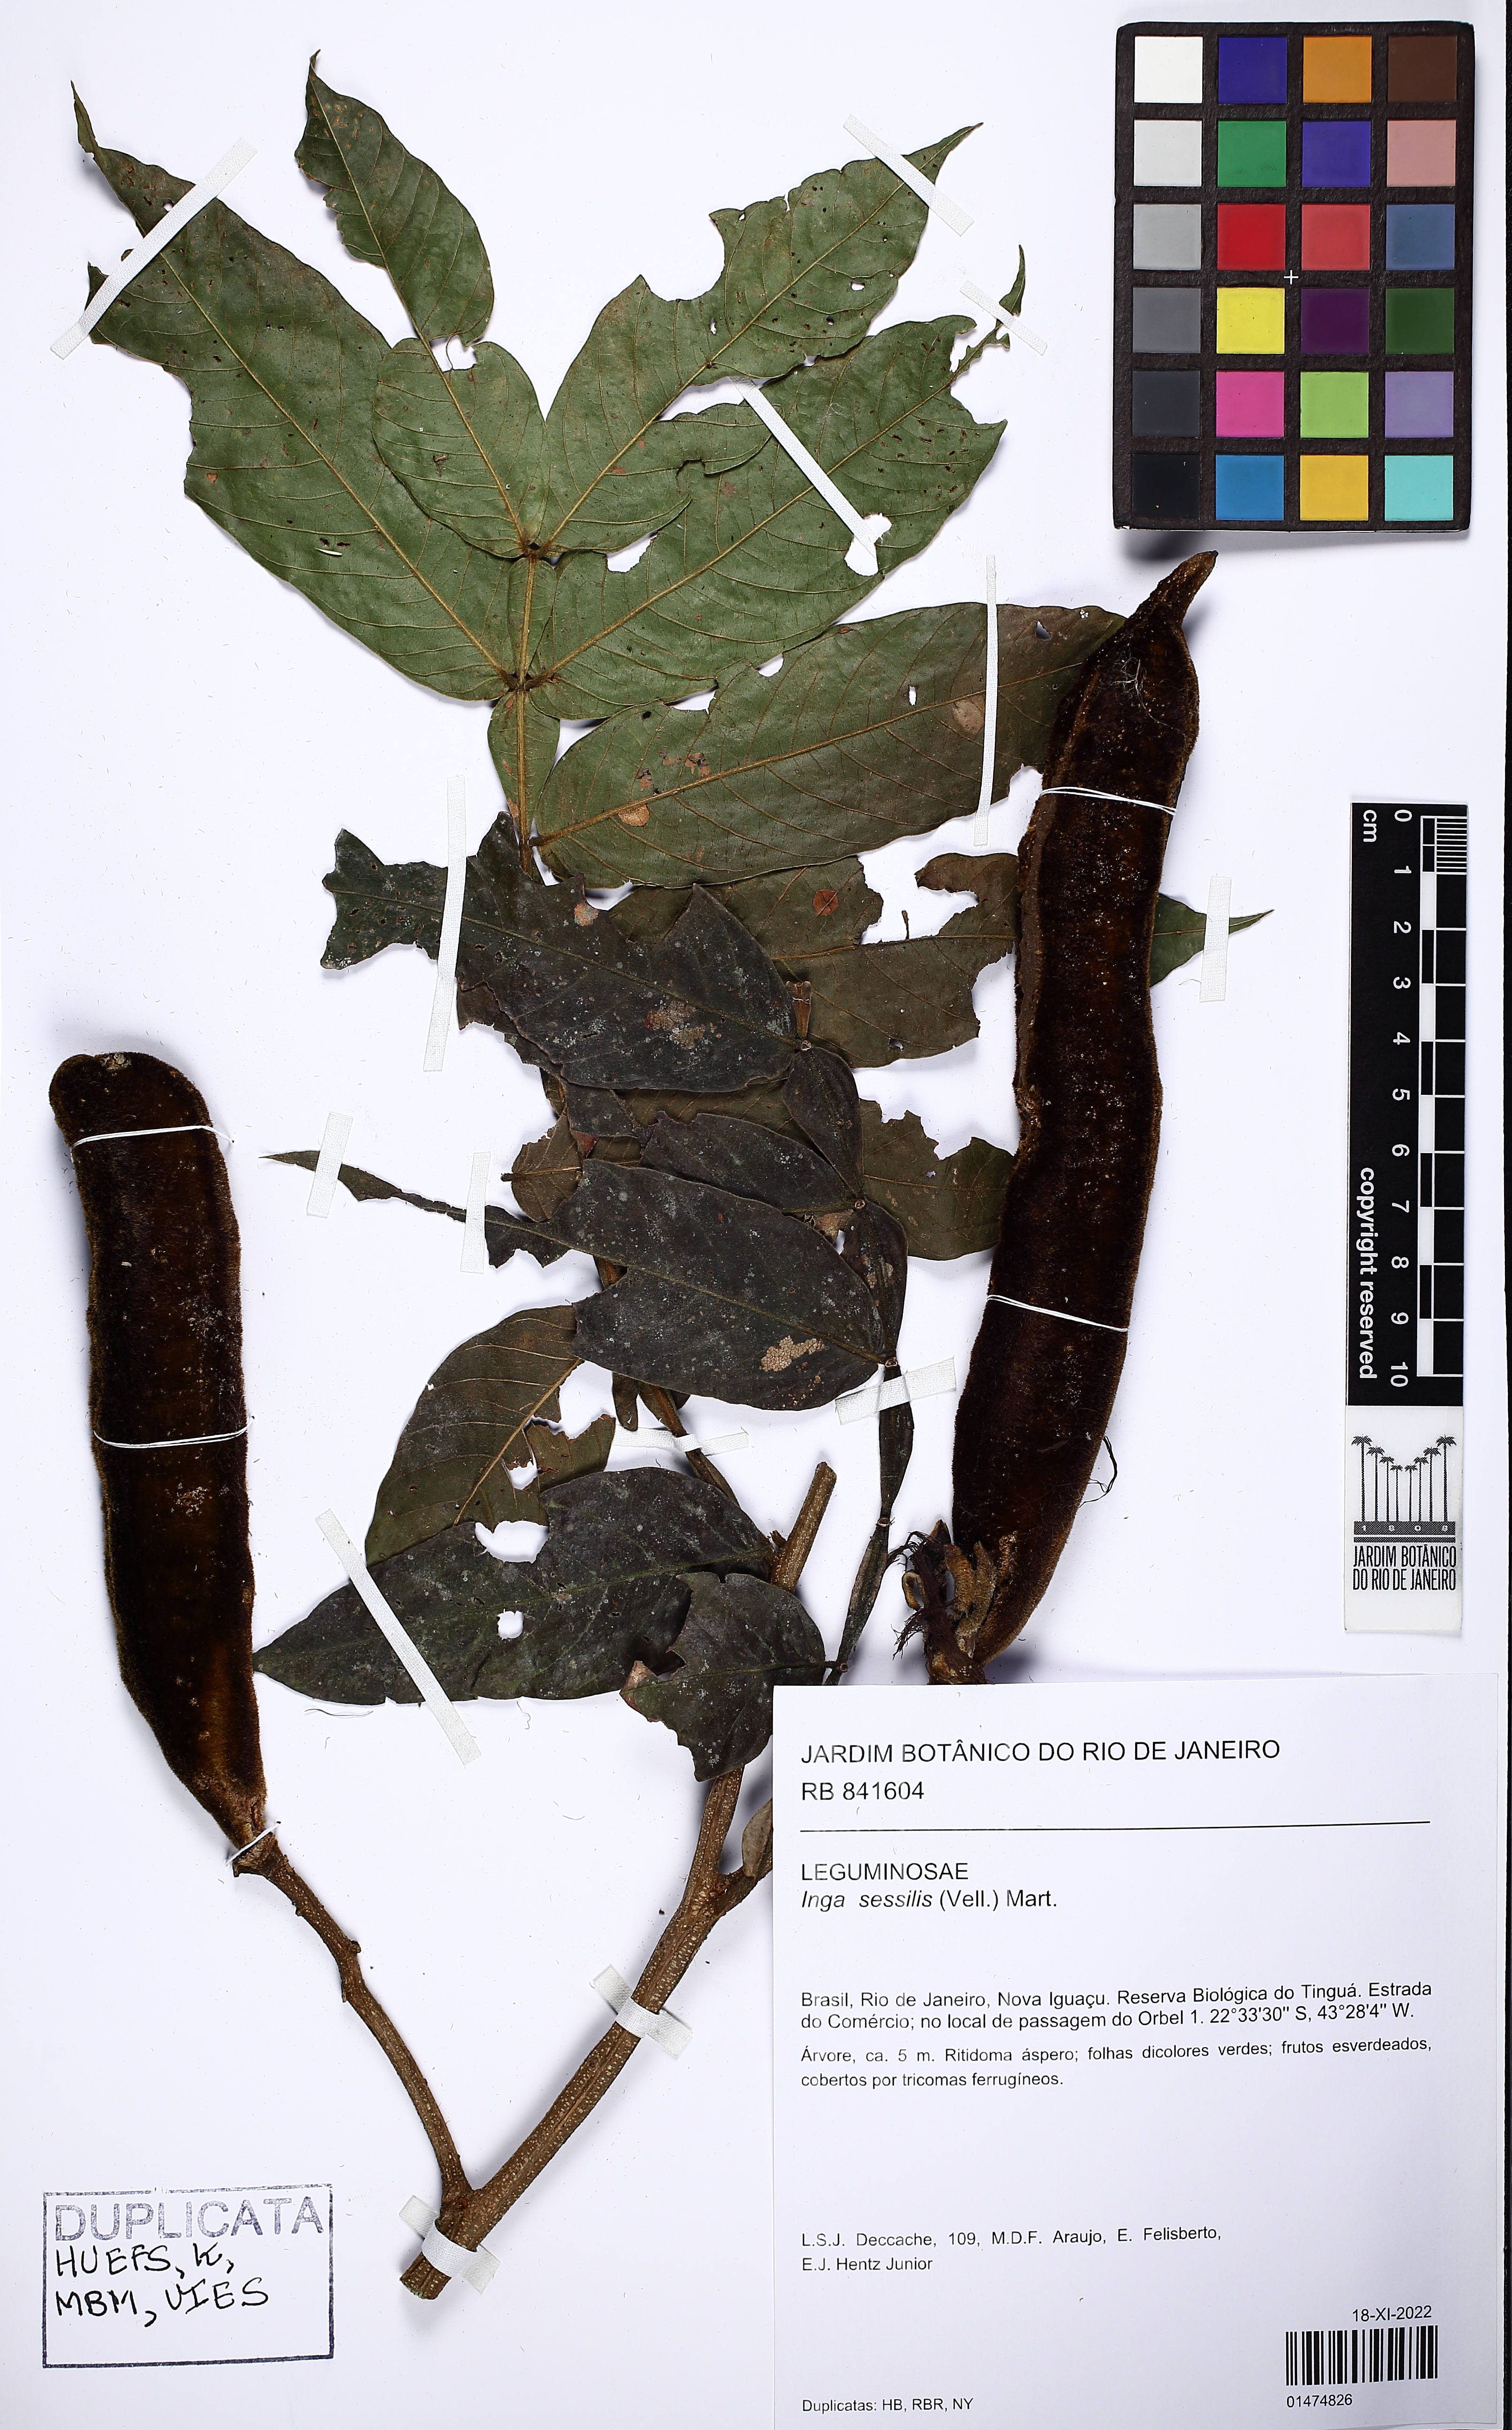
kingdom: Plantae
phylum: Tracheophyta
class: Magnoliopsida
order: Fabales
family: Fabaceae
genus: Inga
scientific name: Inga sessilis
